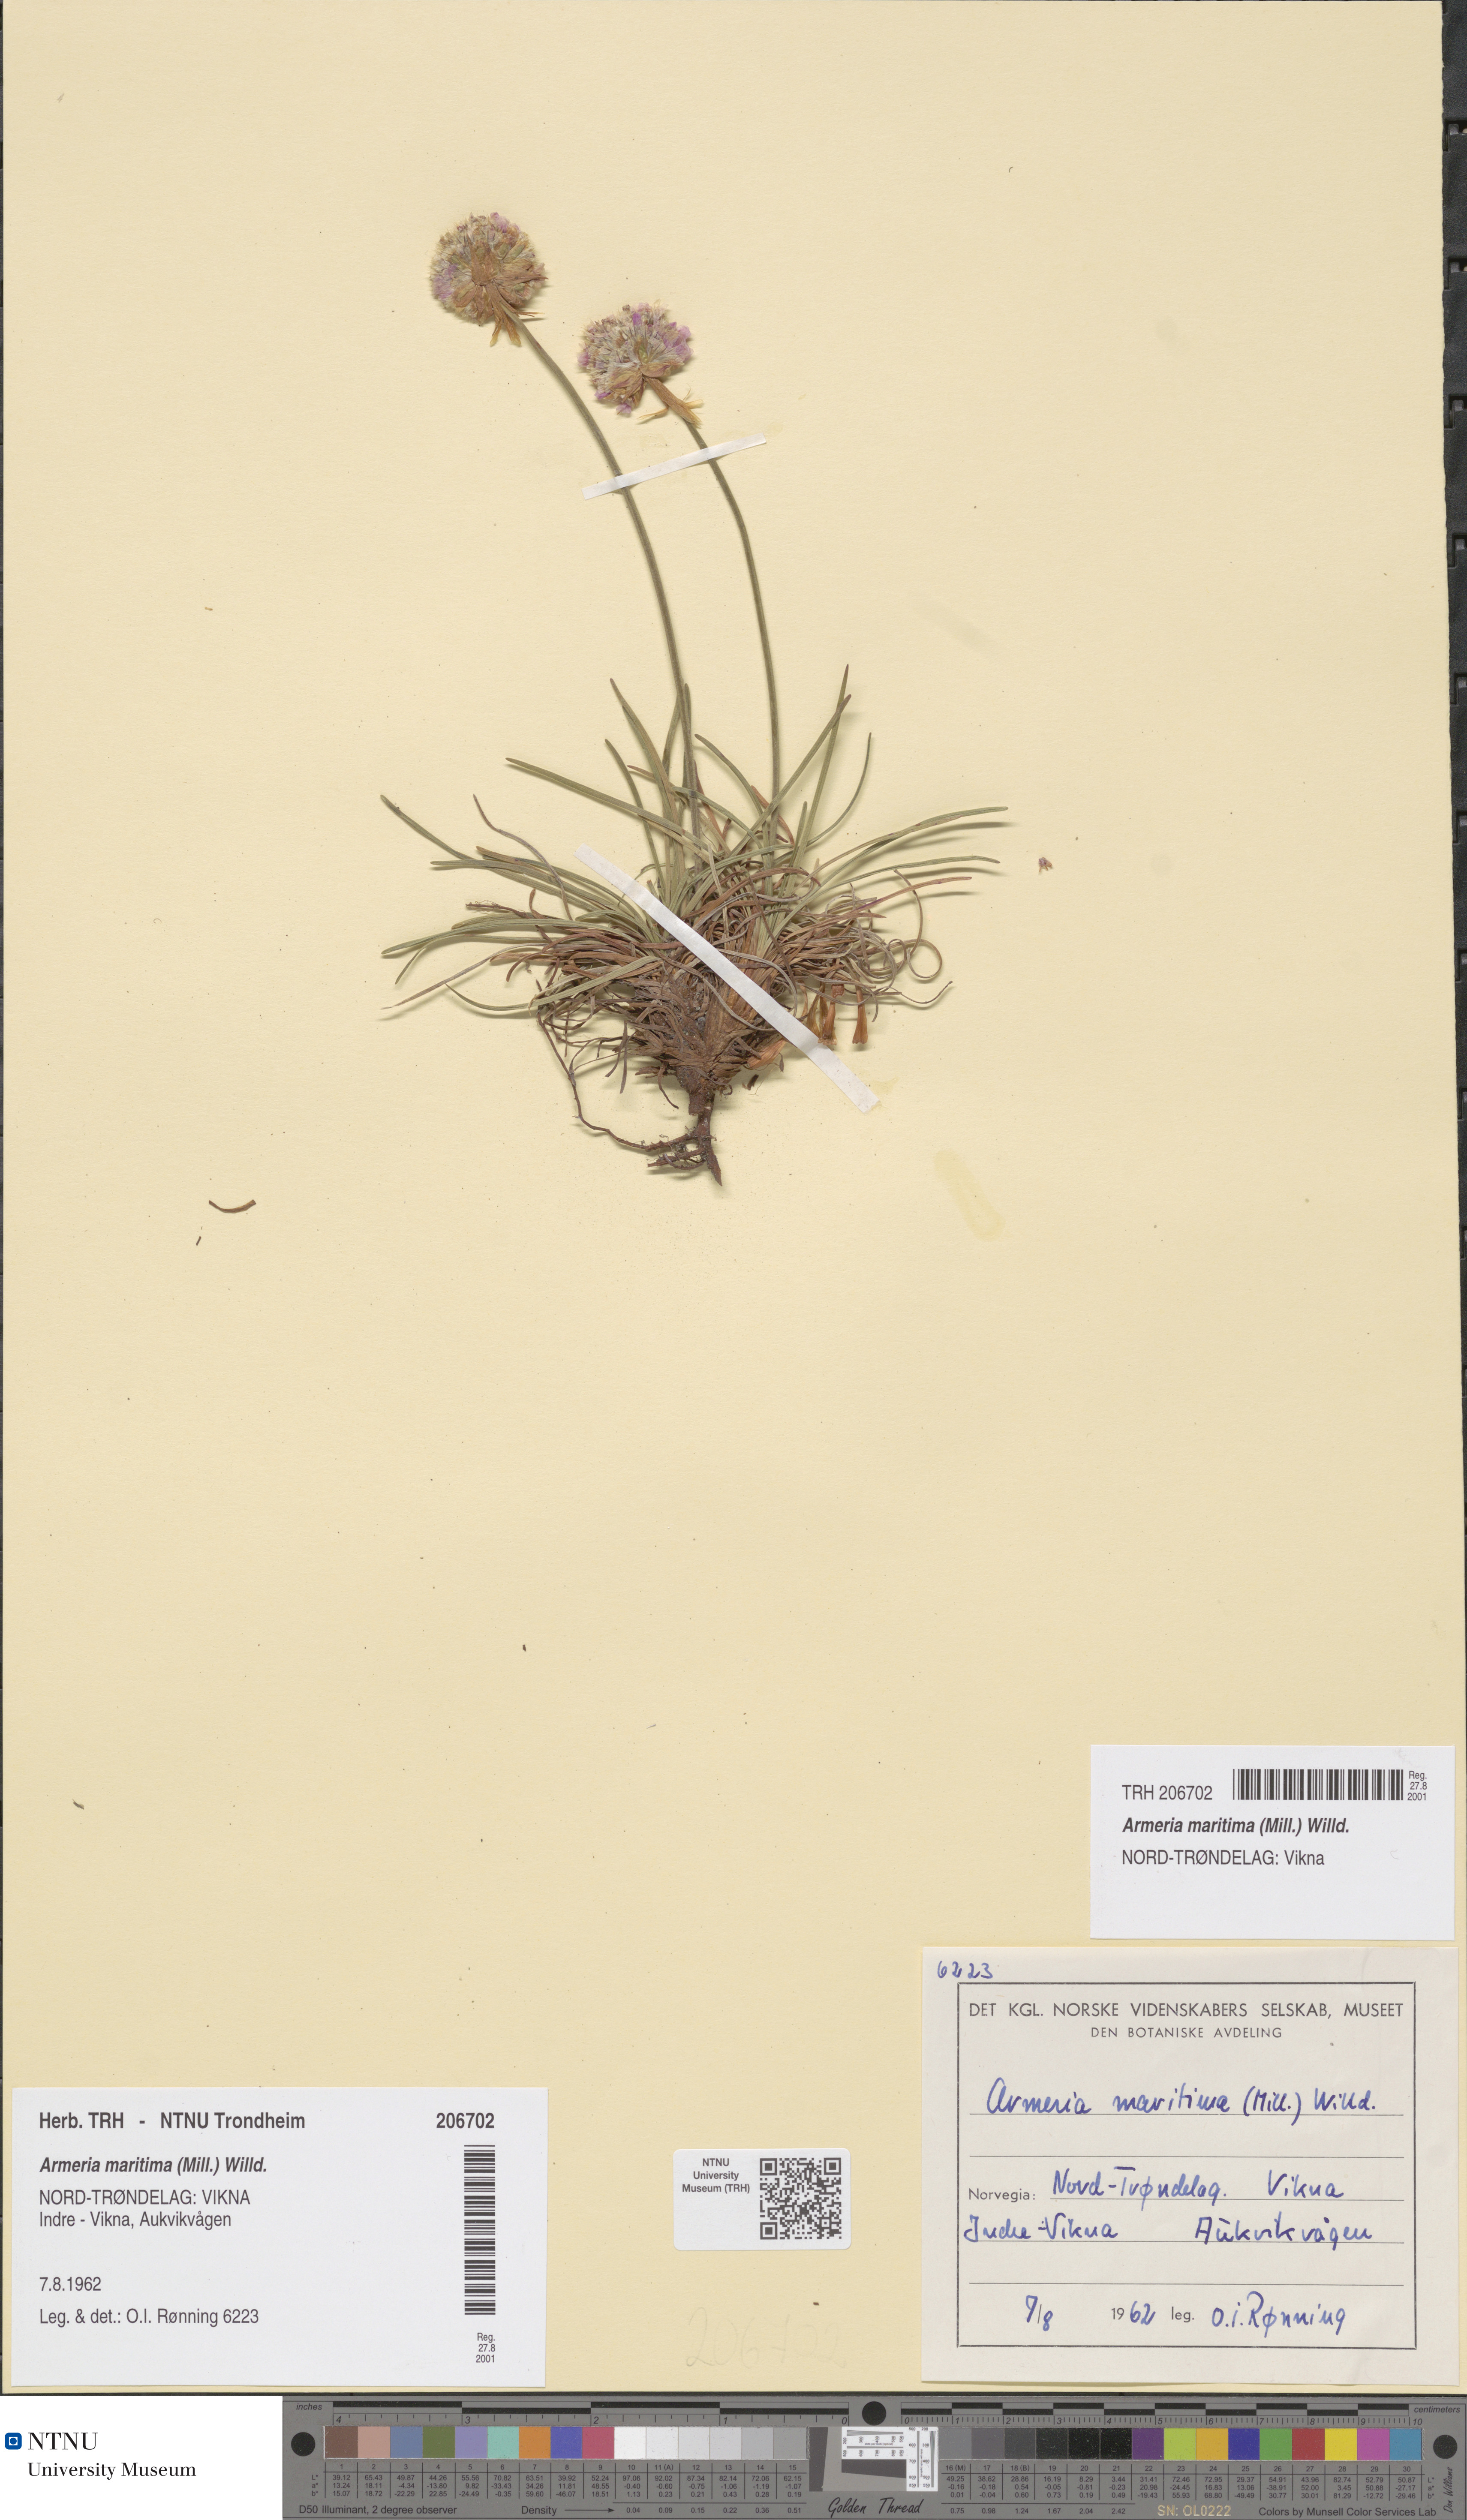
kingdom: Plantae
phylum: Tracheophyta
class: Magnoliopsida
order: Caryophyllales
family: Plumbaginaceae
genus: Armeria
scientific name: Armeria maritima
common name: Thrift
